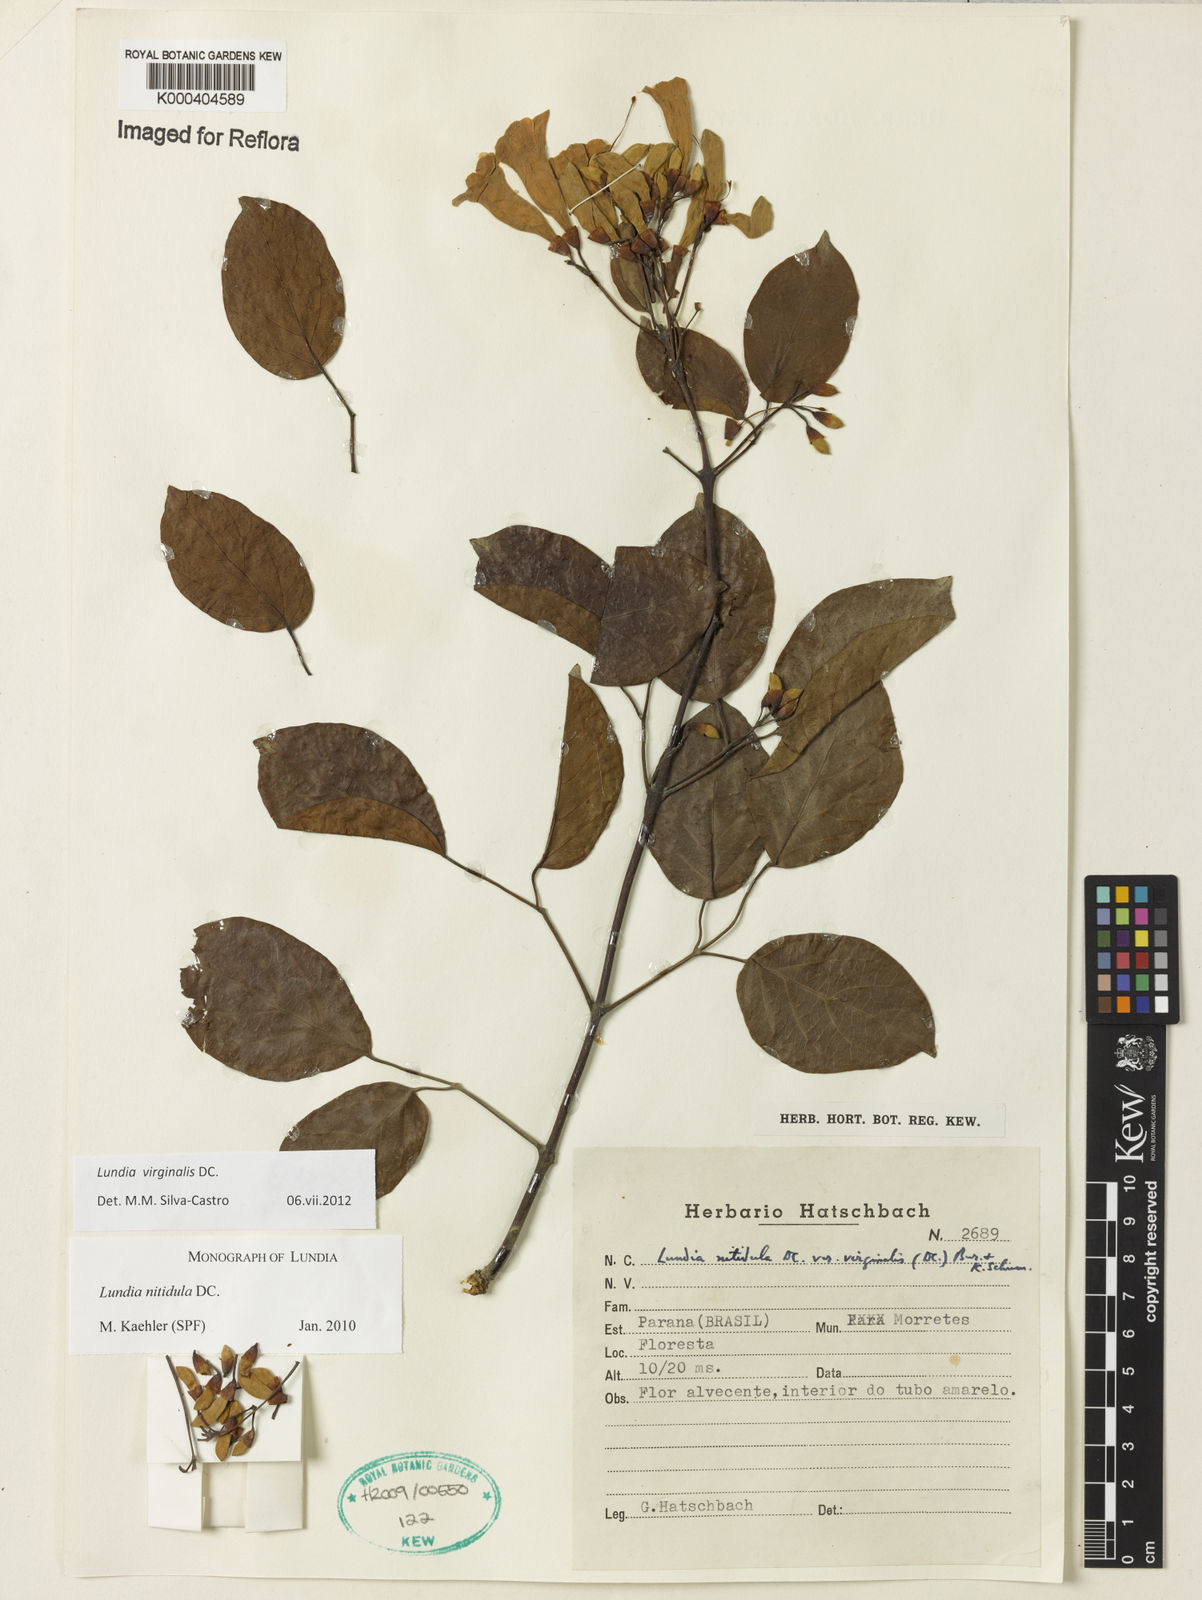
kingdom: Plantae
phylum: Tracheophyta
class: Magnoliopsida
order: Lamiales
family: Bignoniaceae
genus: Lundia
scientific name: Lundia virginalis
